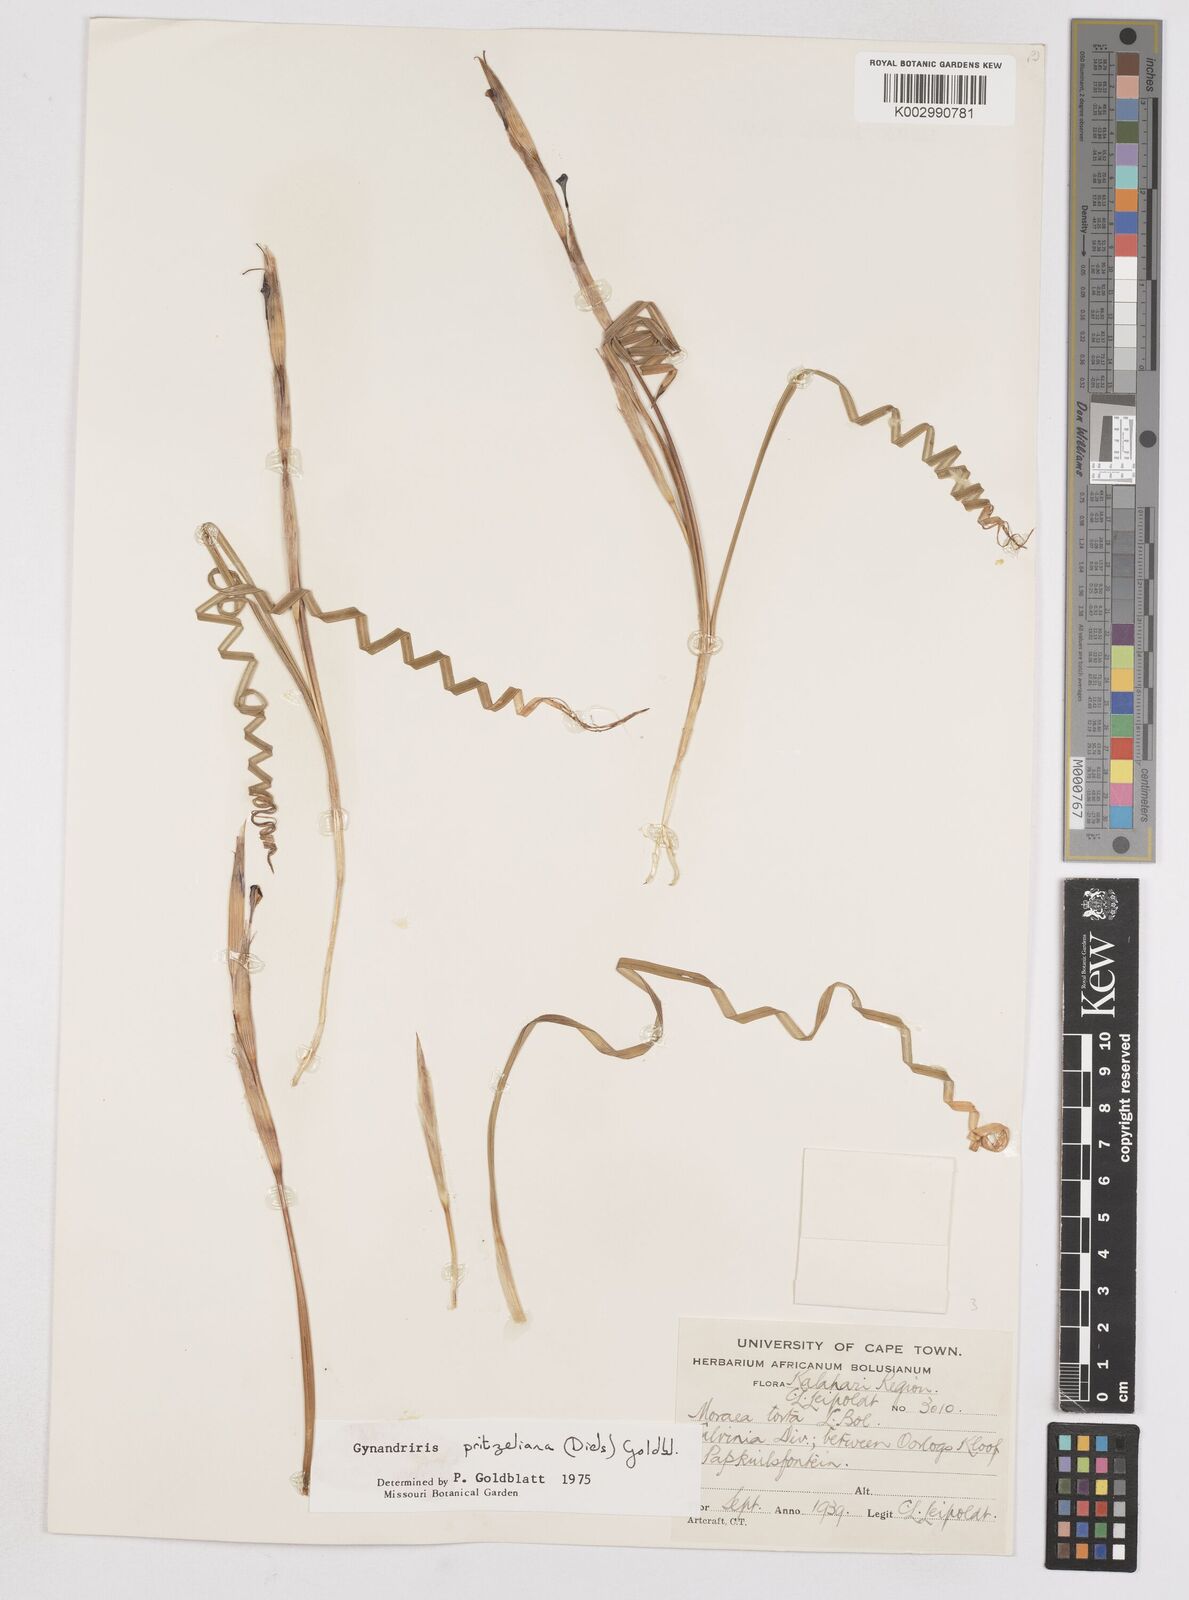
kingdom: Plantae
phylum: Tracheophyta
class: Liliopsida
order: Asparagales
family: Iridaceae
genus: Moraea
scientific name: Moraea pritzeliana
